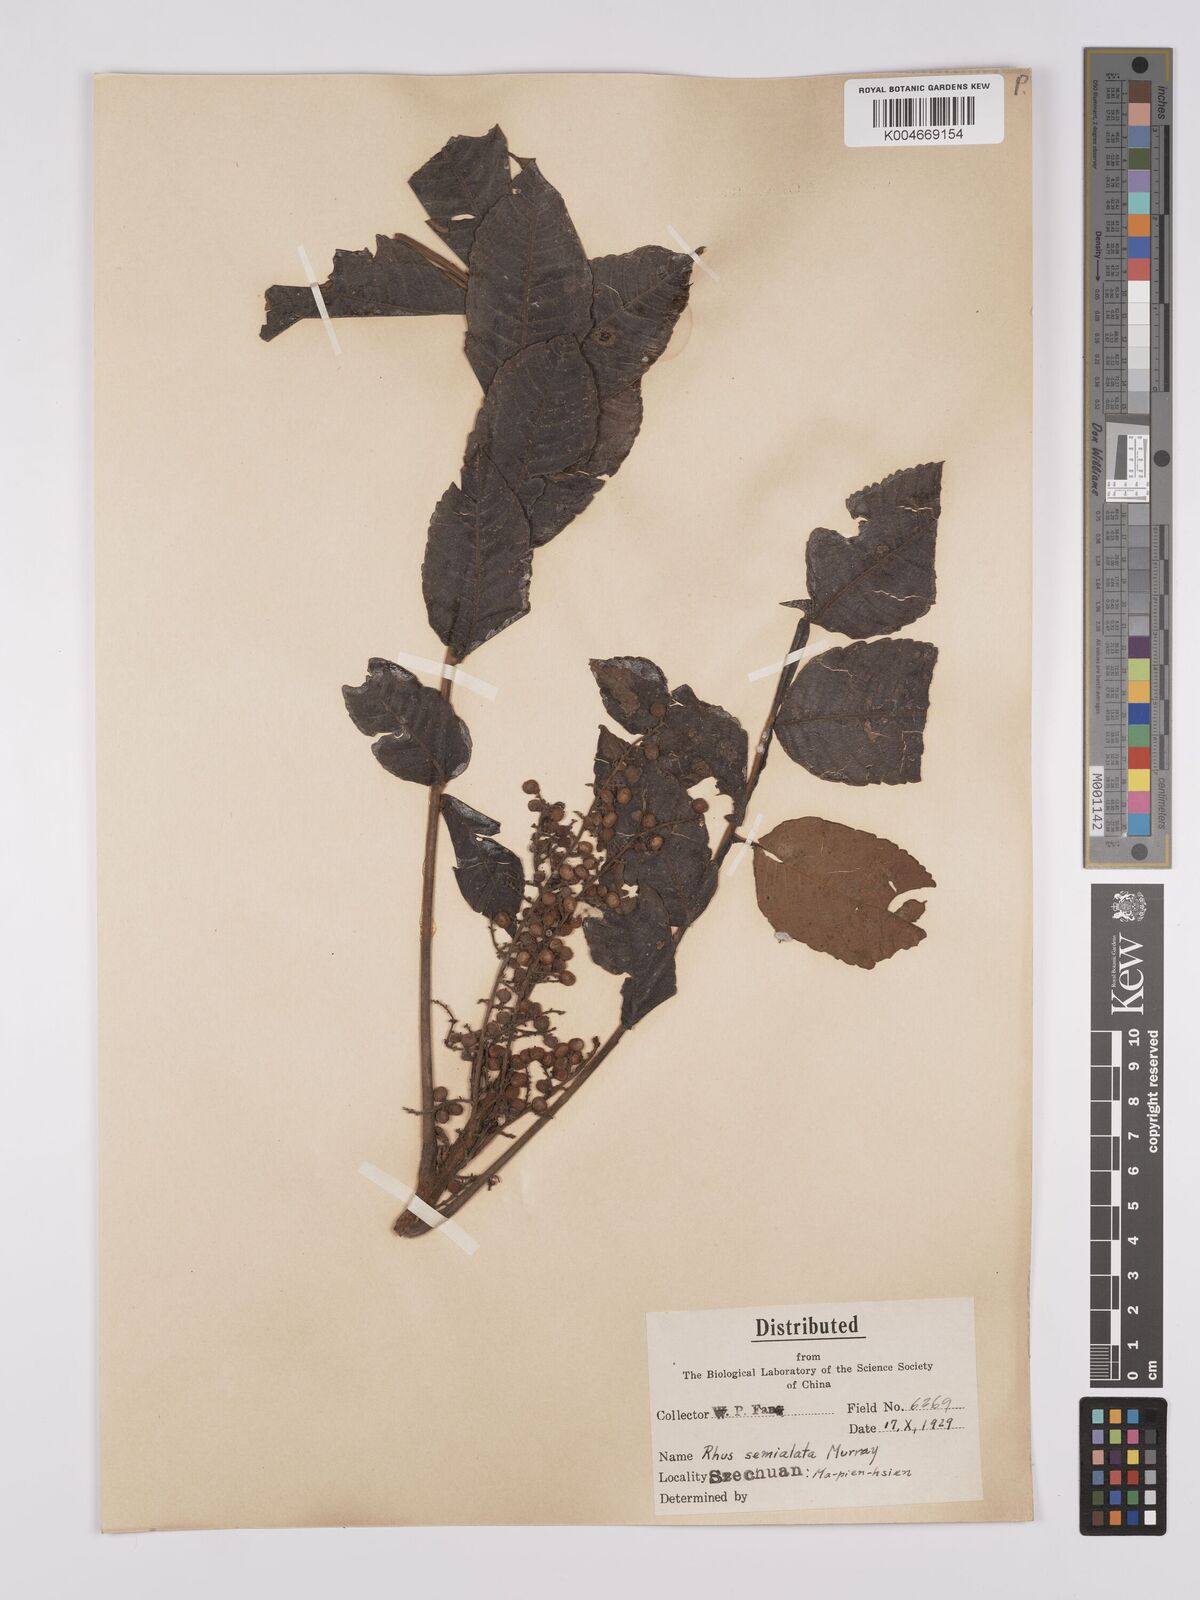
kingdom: Plantae
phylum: Tracheophyta
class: Magnoliopsida
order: Sapindales
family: Anacardiaceae
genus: Rhus
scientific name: Rhus chinensis
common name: Chinese gall
